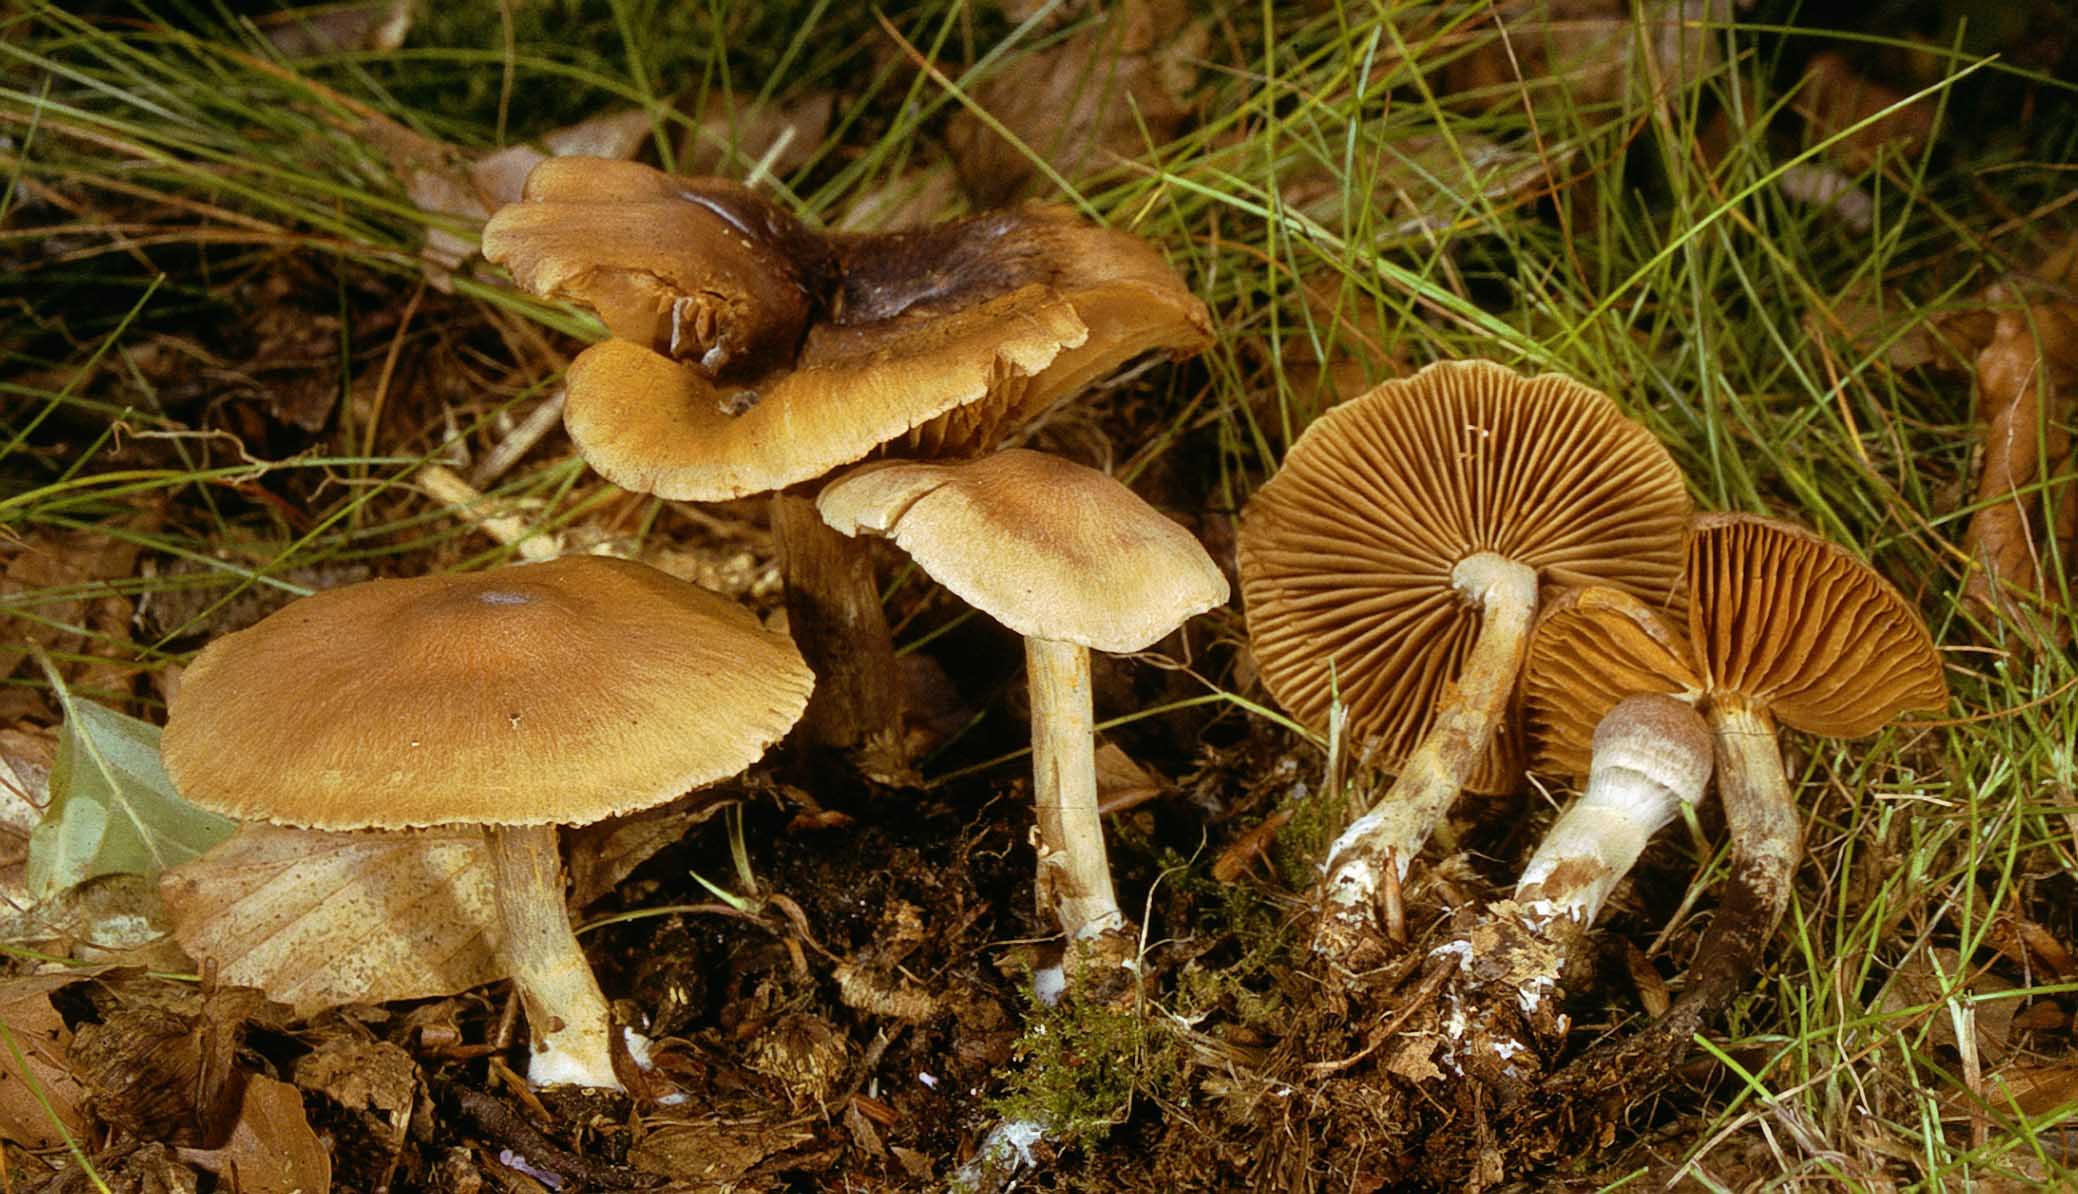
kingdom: Fungi
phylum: Basidiomycota
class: Agaricomycetes
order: Agaricales
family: Cortinariaceae
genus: Cortinarius
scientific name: Cortinarius
